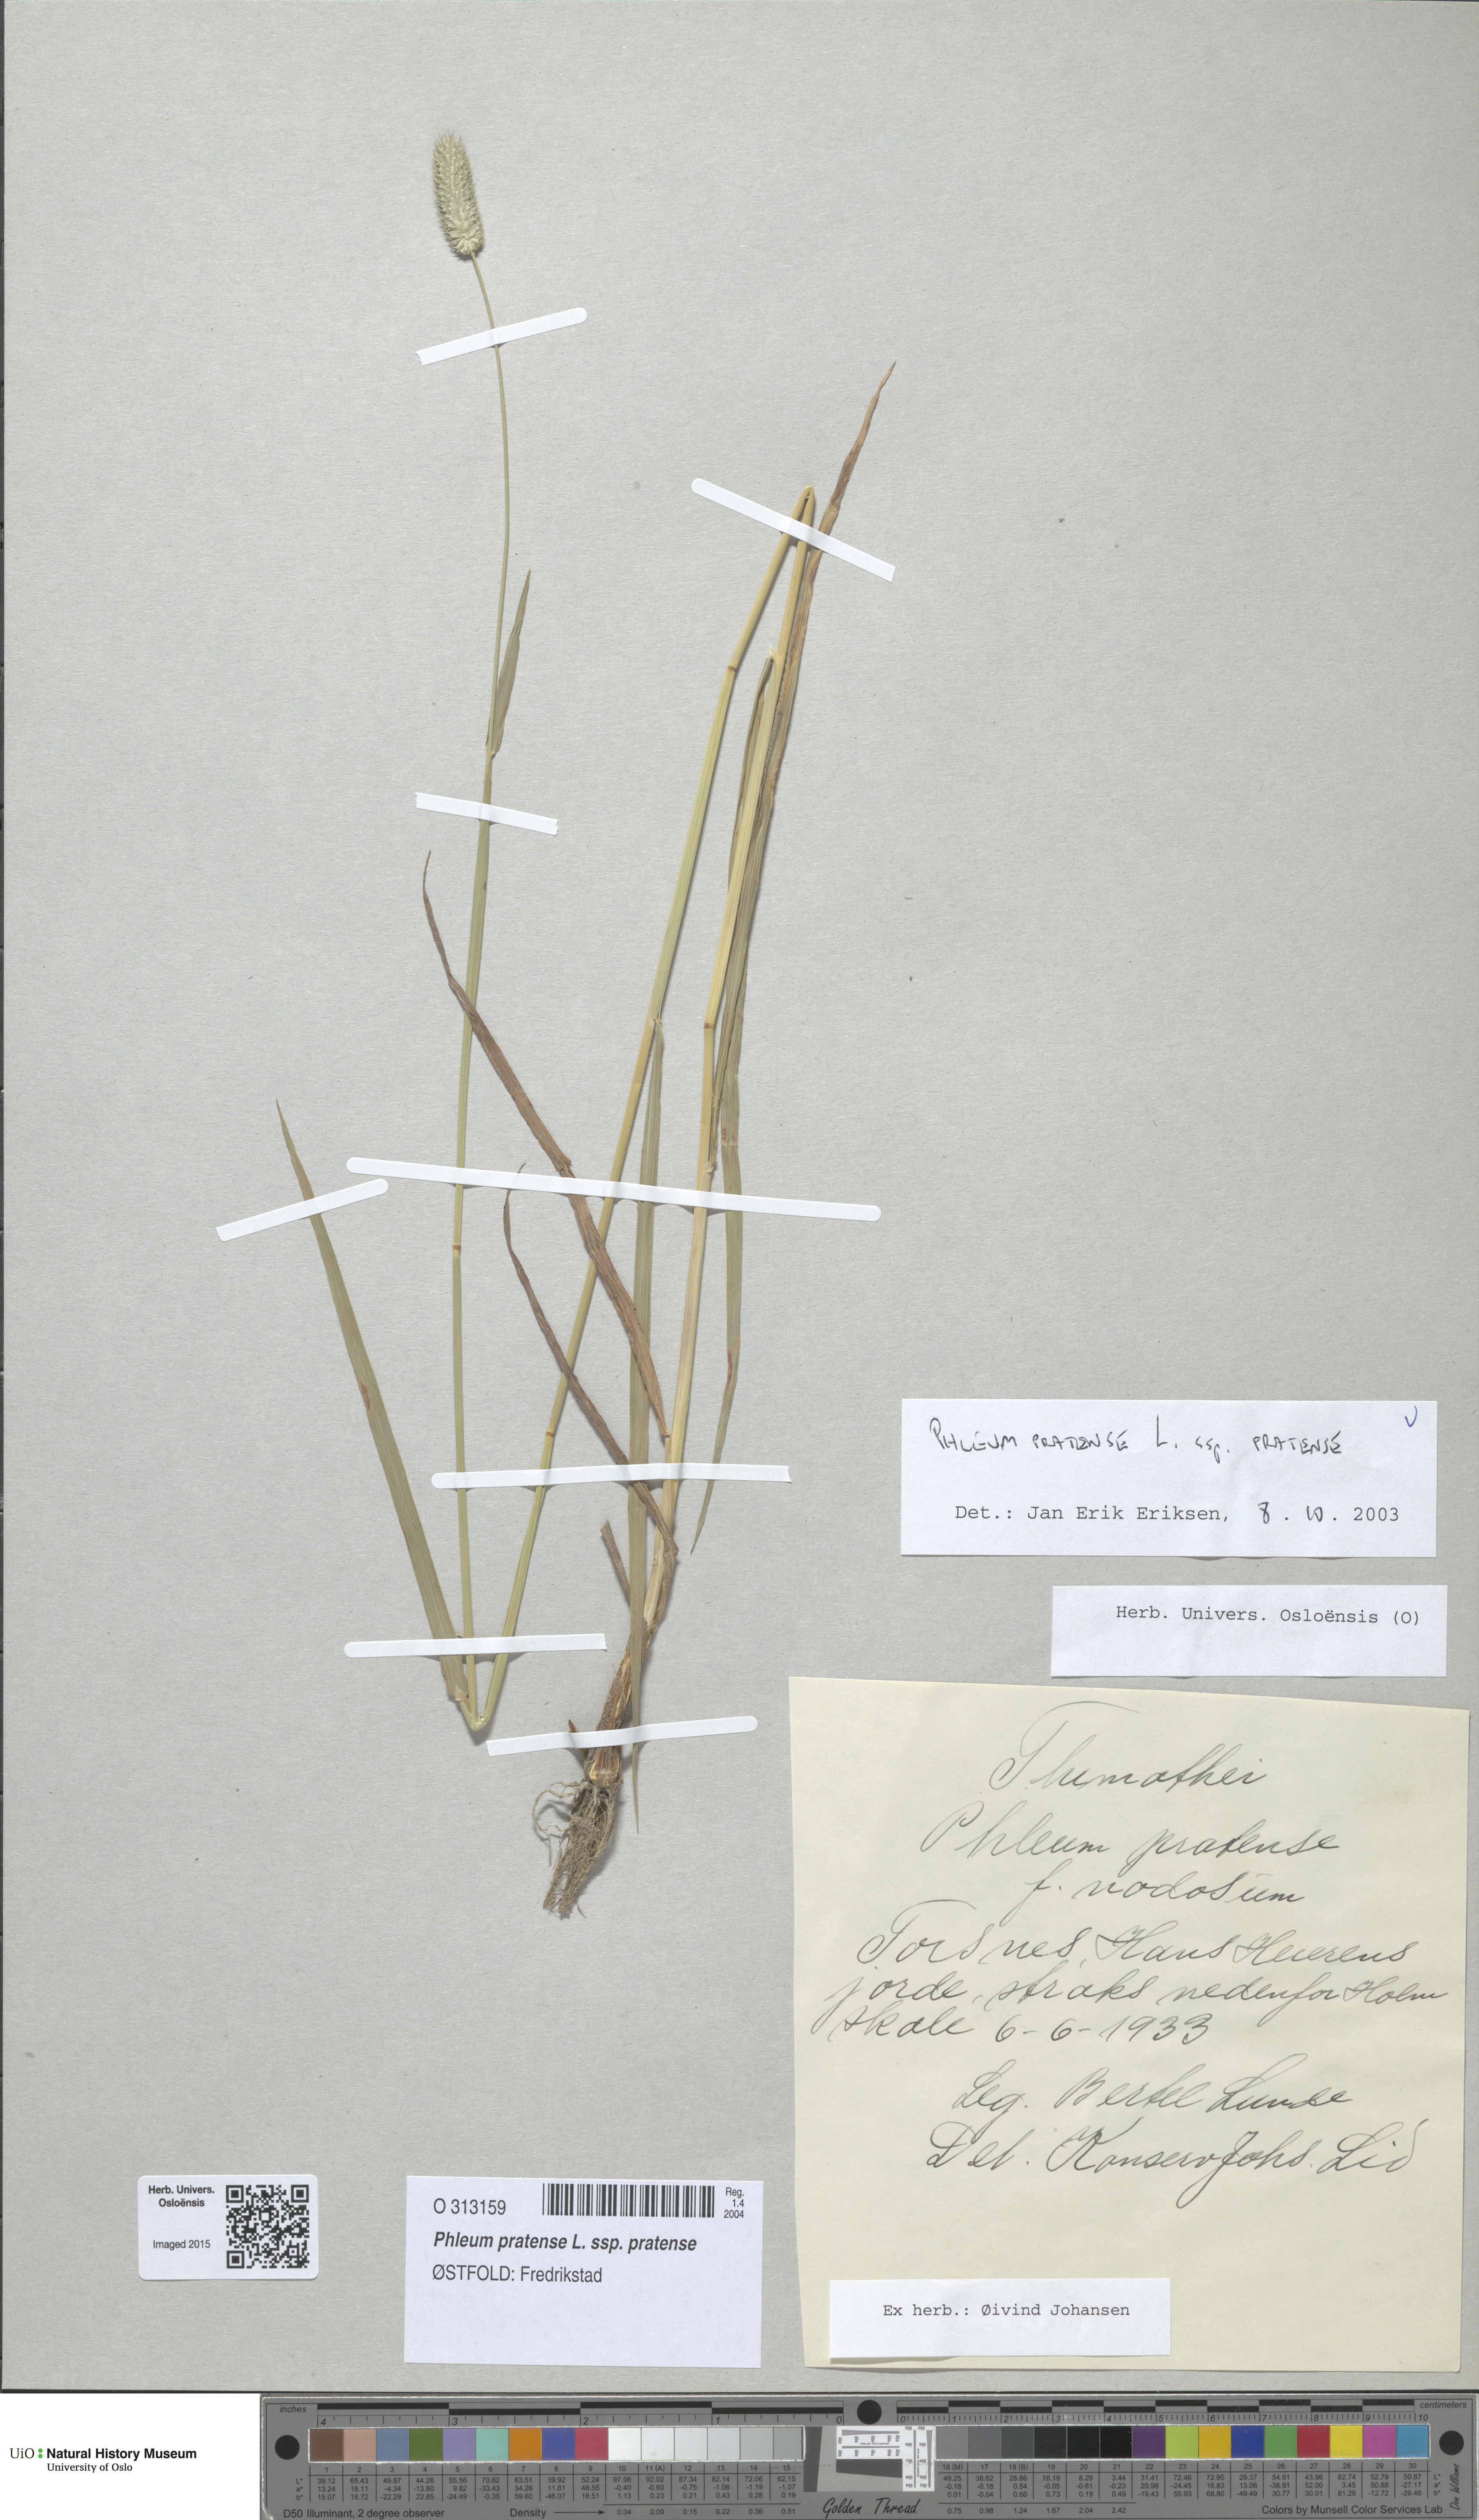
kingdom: Plantae
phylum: Tracheophyta
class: Liliopsida
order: Poales
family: Poaceae
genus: Phleum
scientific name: Phleum pratense
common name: Timothy grass
